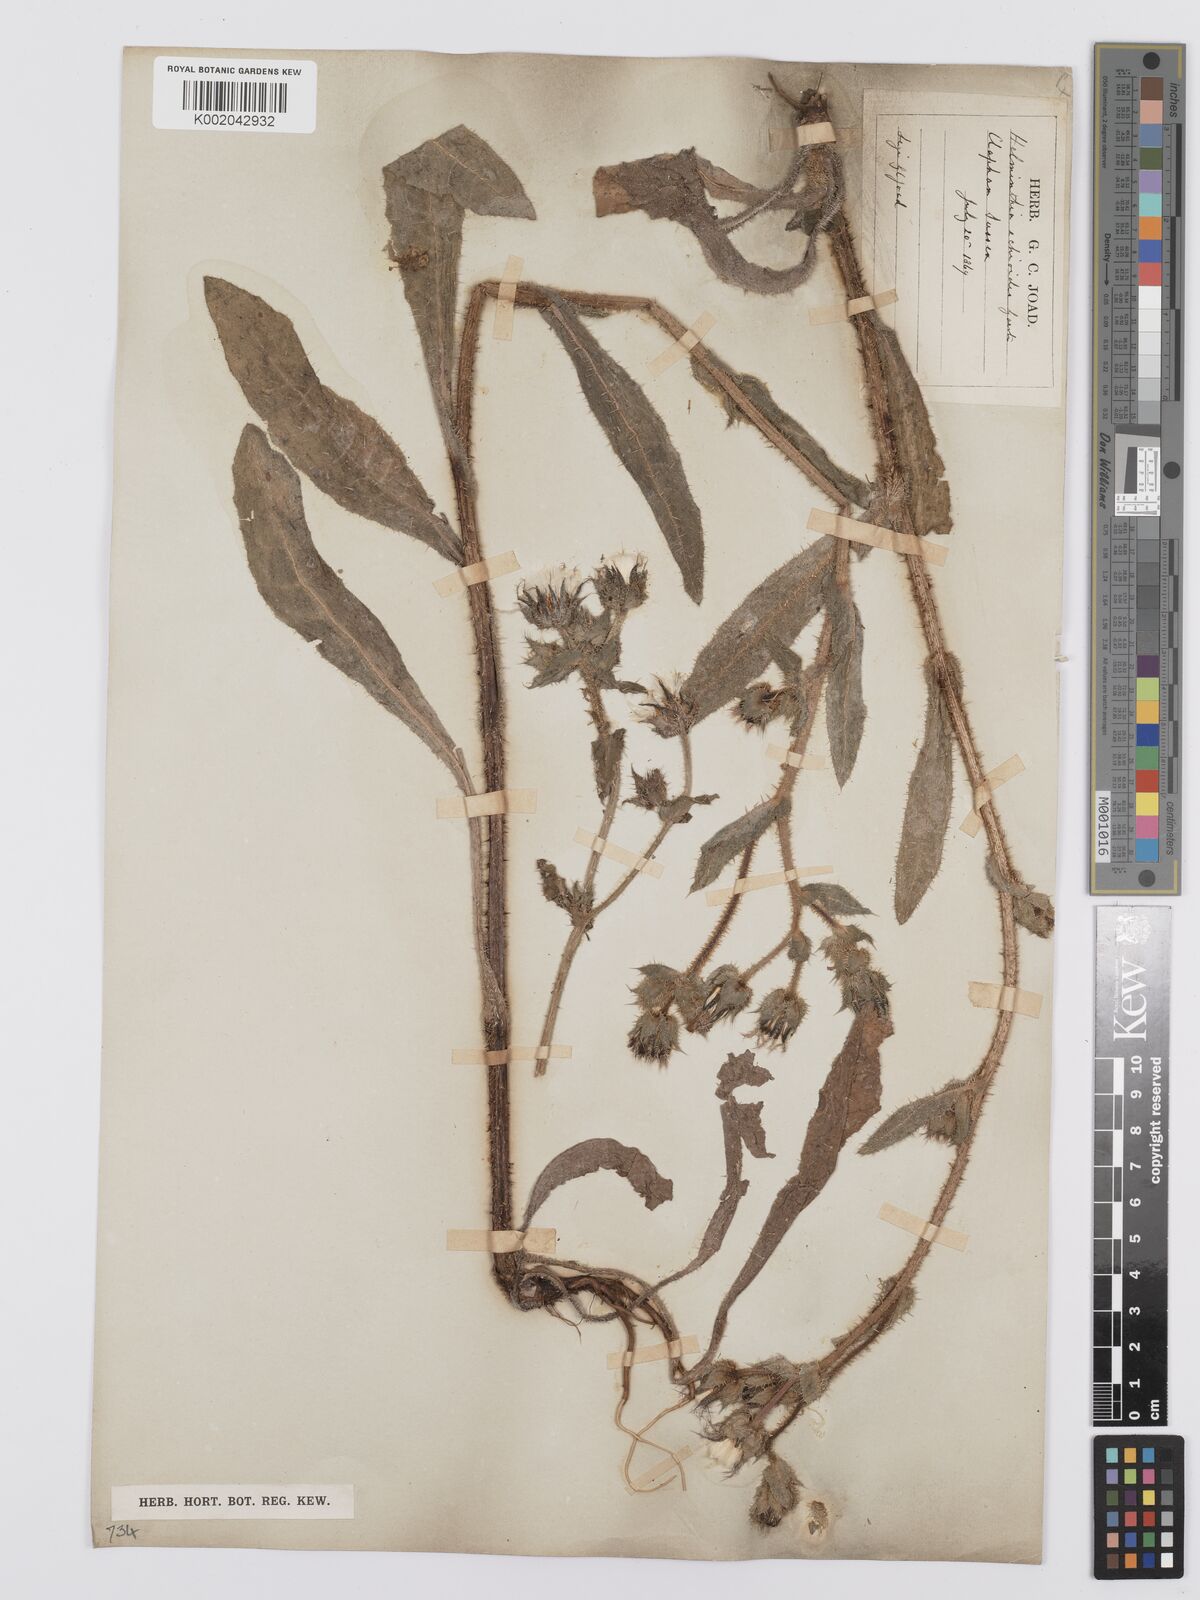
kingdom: Plantae
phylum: Tracheophyta
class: Magnoliopsida
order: Asterales
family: Asteraceae
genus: Helminthotheca
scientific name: Helminthotheca echioides
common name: Ox-tongue
